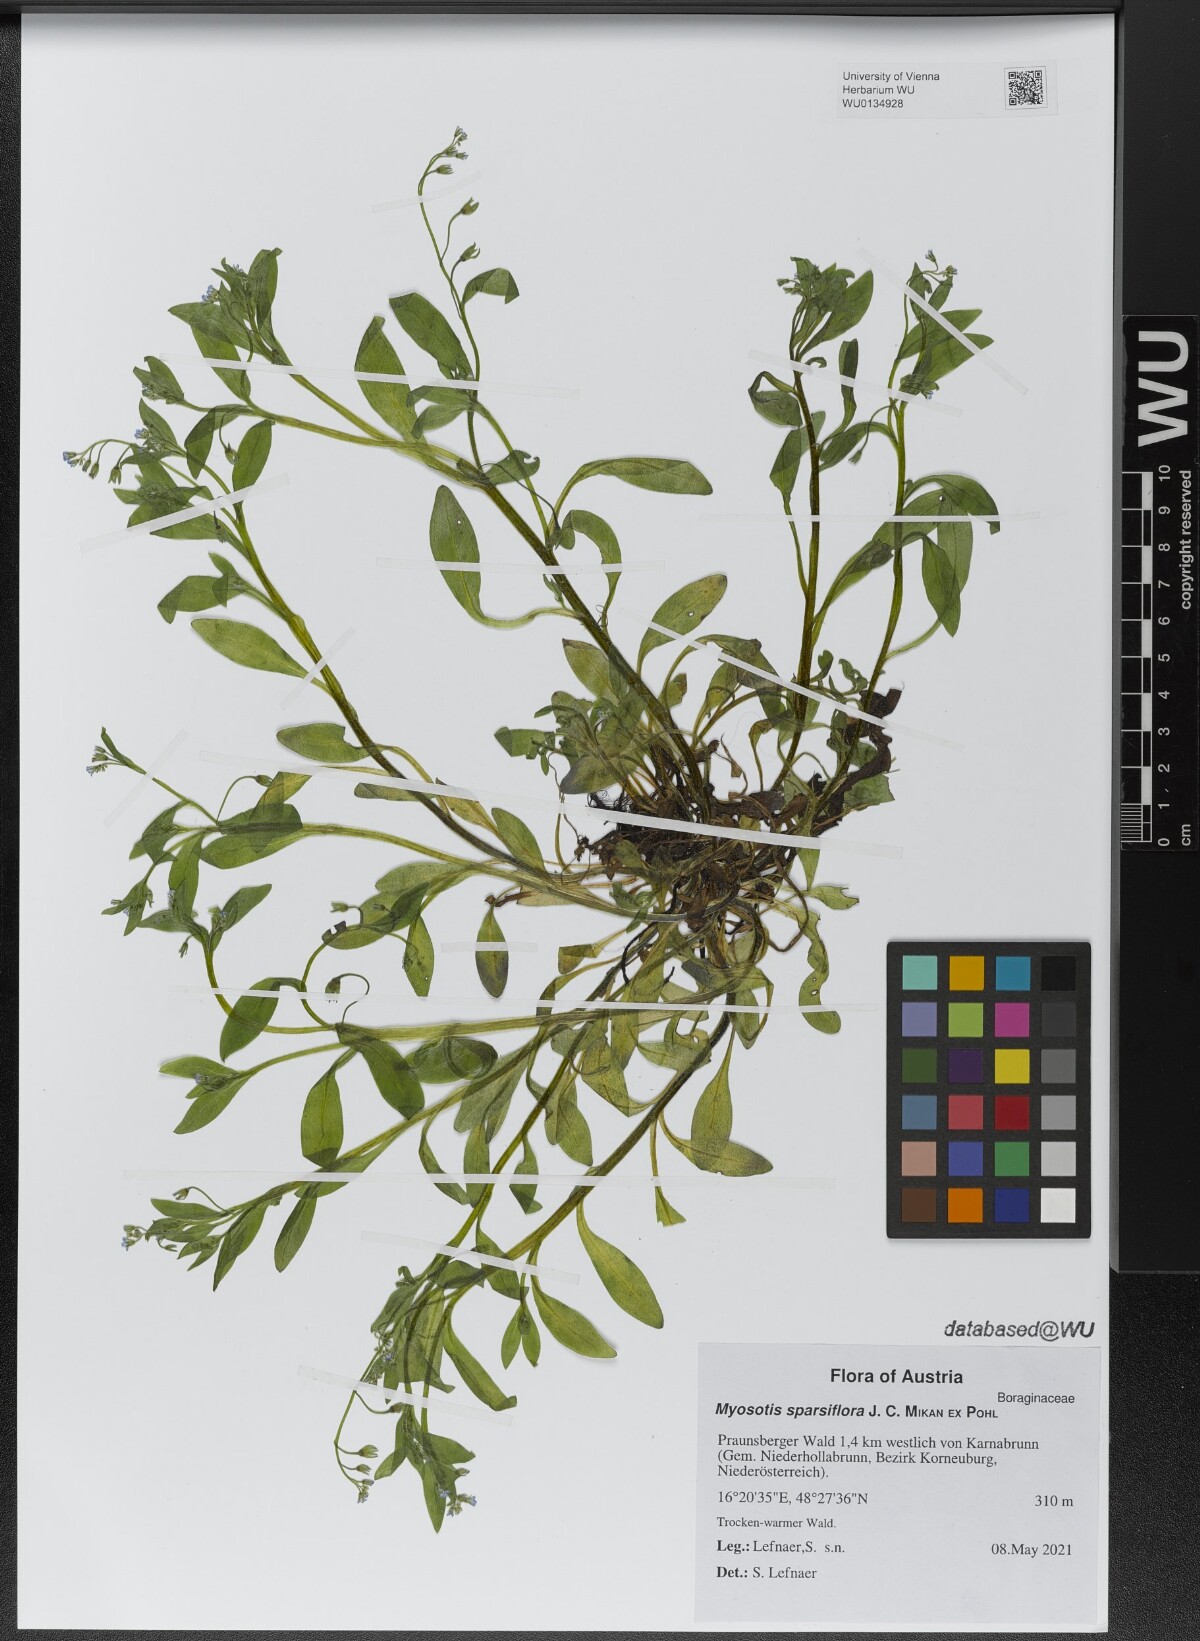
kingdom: Plantae
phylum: Tracheophyta
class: Magnoliopsida
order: Boraginales
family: Boraginaceae
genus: Myosotis
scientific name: Myosotis sparsiflora
